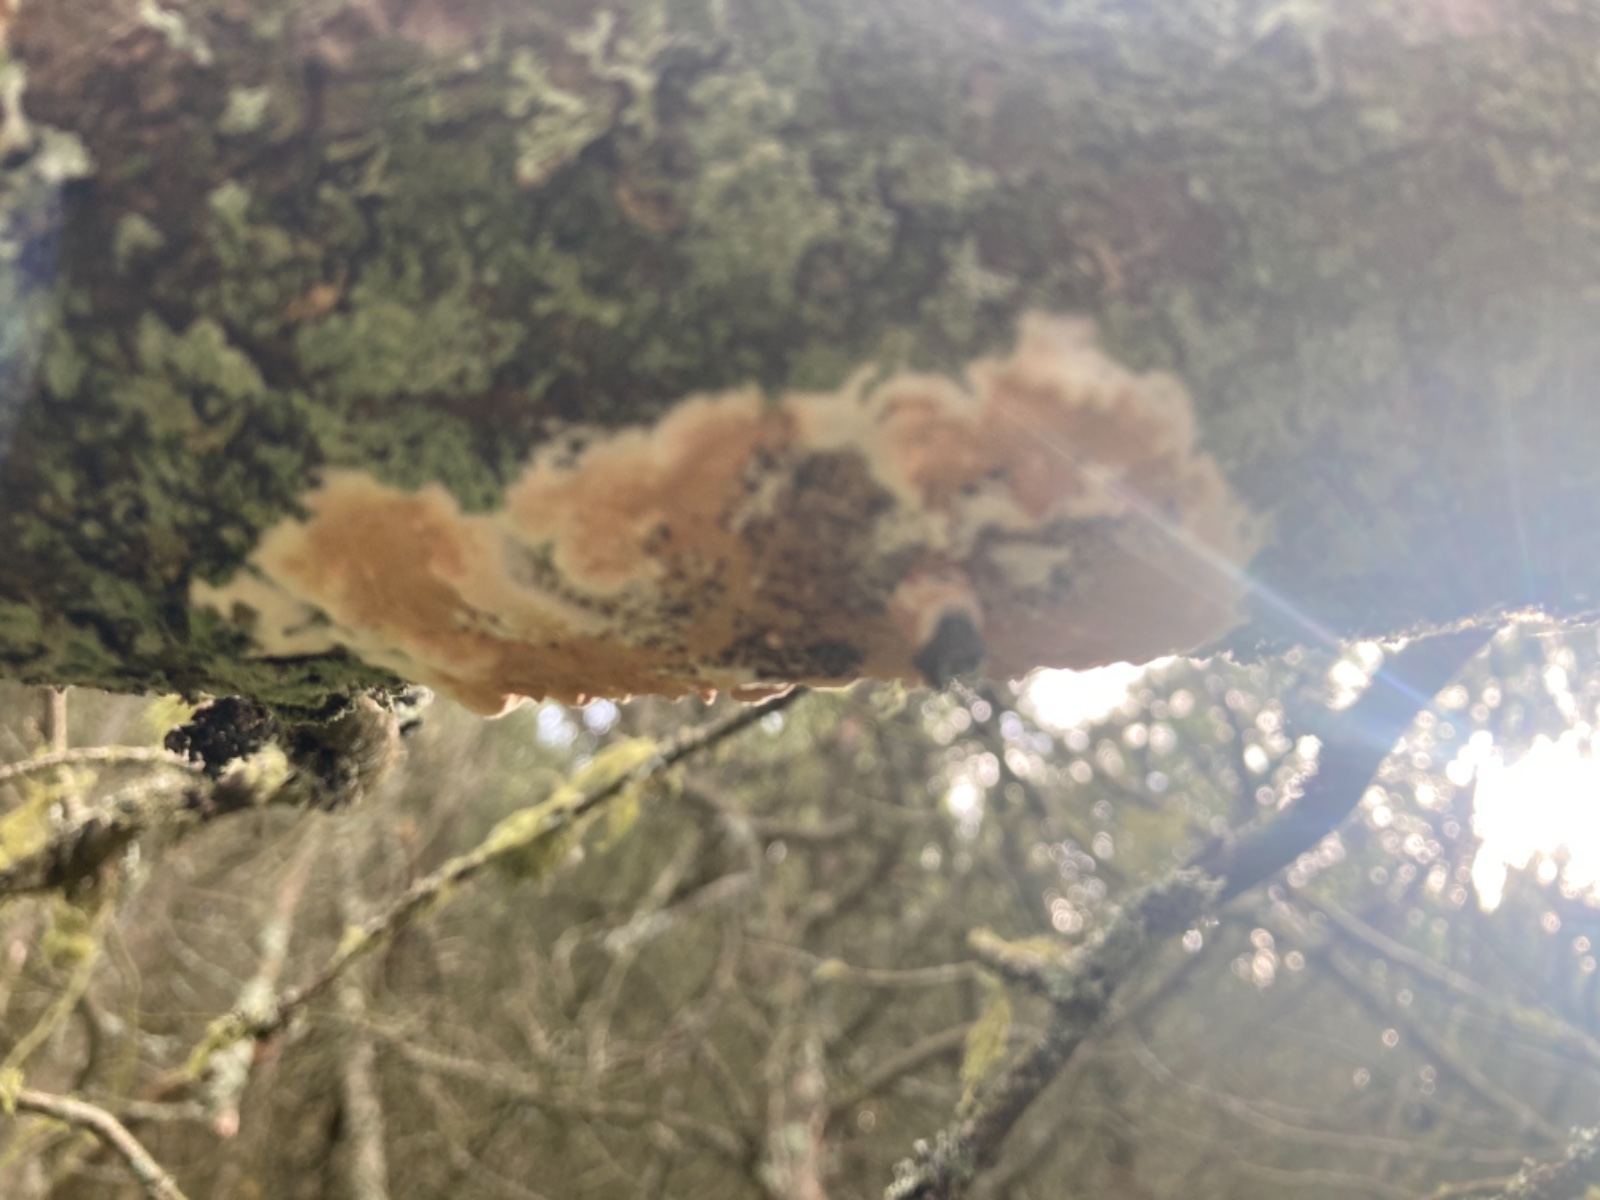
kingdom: Fungi
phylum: Basidiomycota
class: Agaricomycetes
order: Polyporales
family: Irpicaceae
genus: Meruliopsis
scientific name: Meruliopsis taxicola
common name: purpurbrun foldporesvamp
